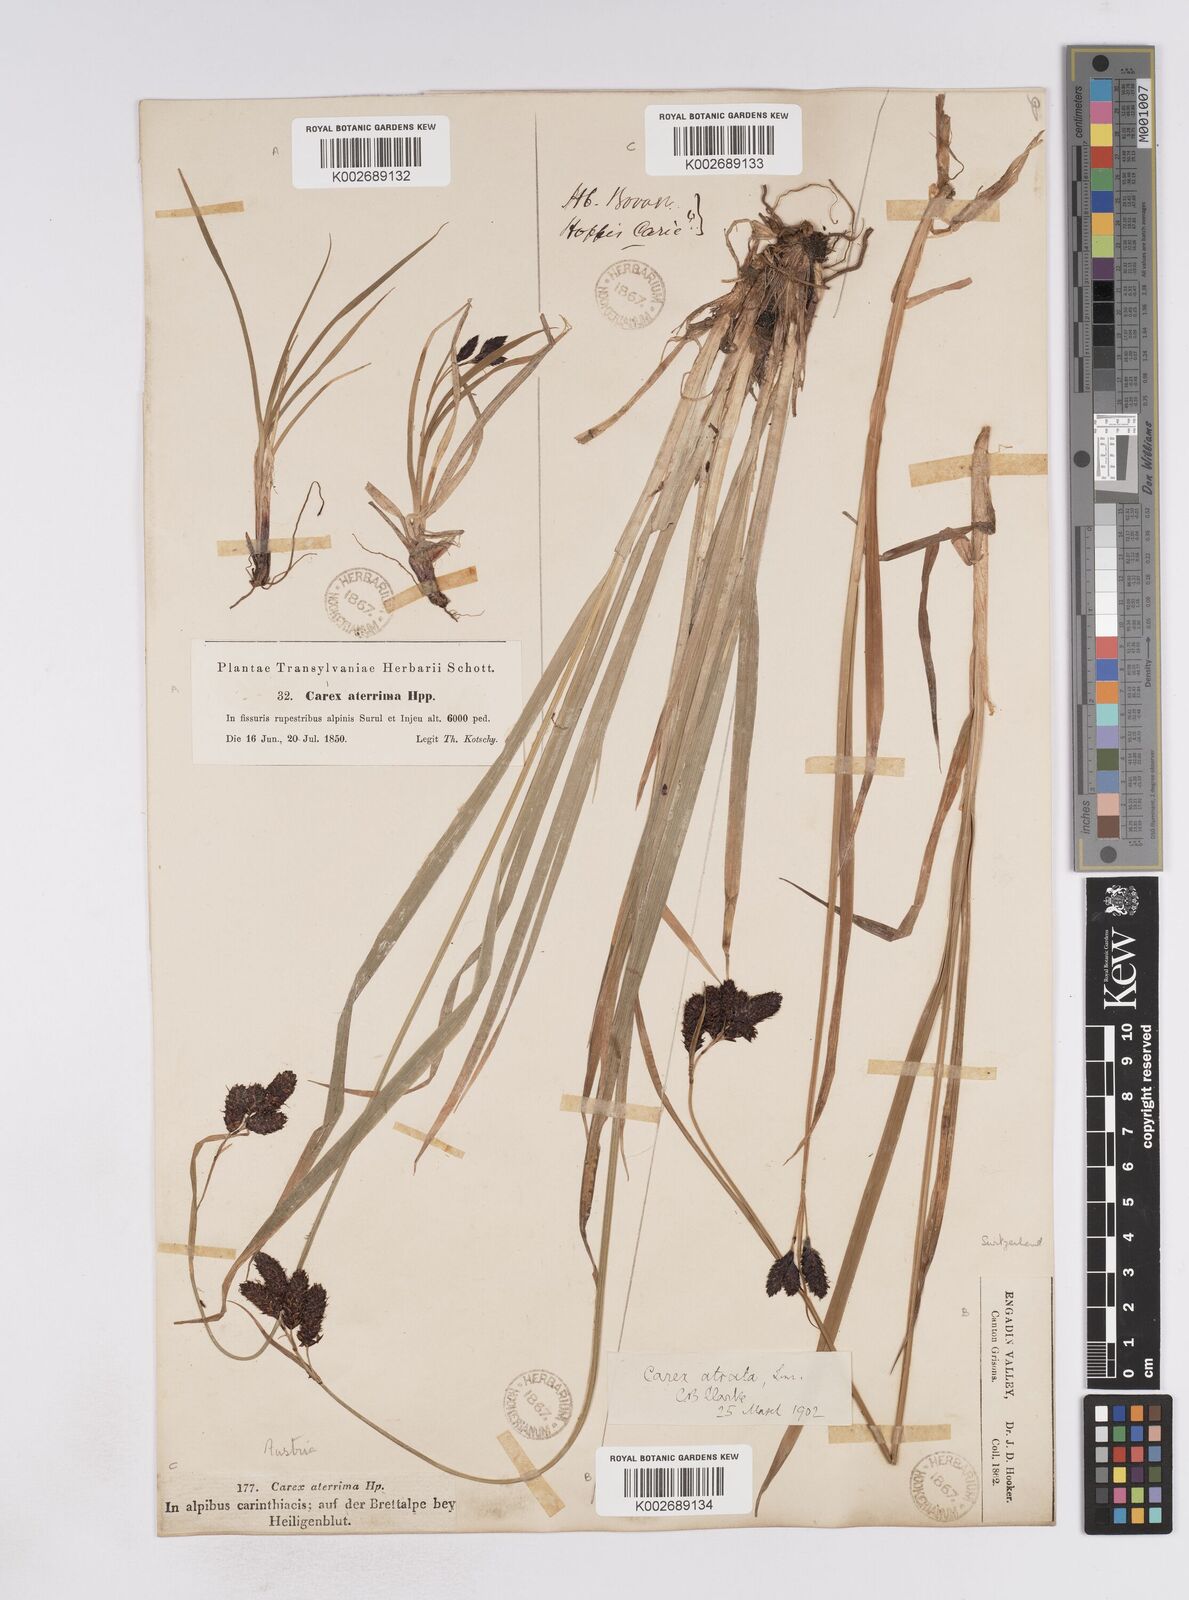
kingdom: Plantae
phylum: Tracheophyta
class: Liliopsida
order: Poales
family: Cyperaceae
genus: Carex
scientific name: Carex aterrima
